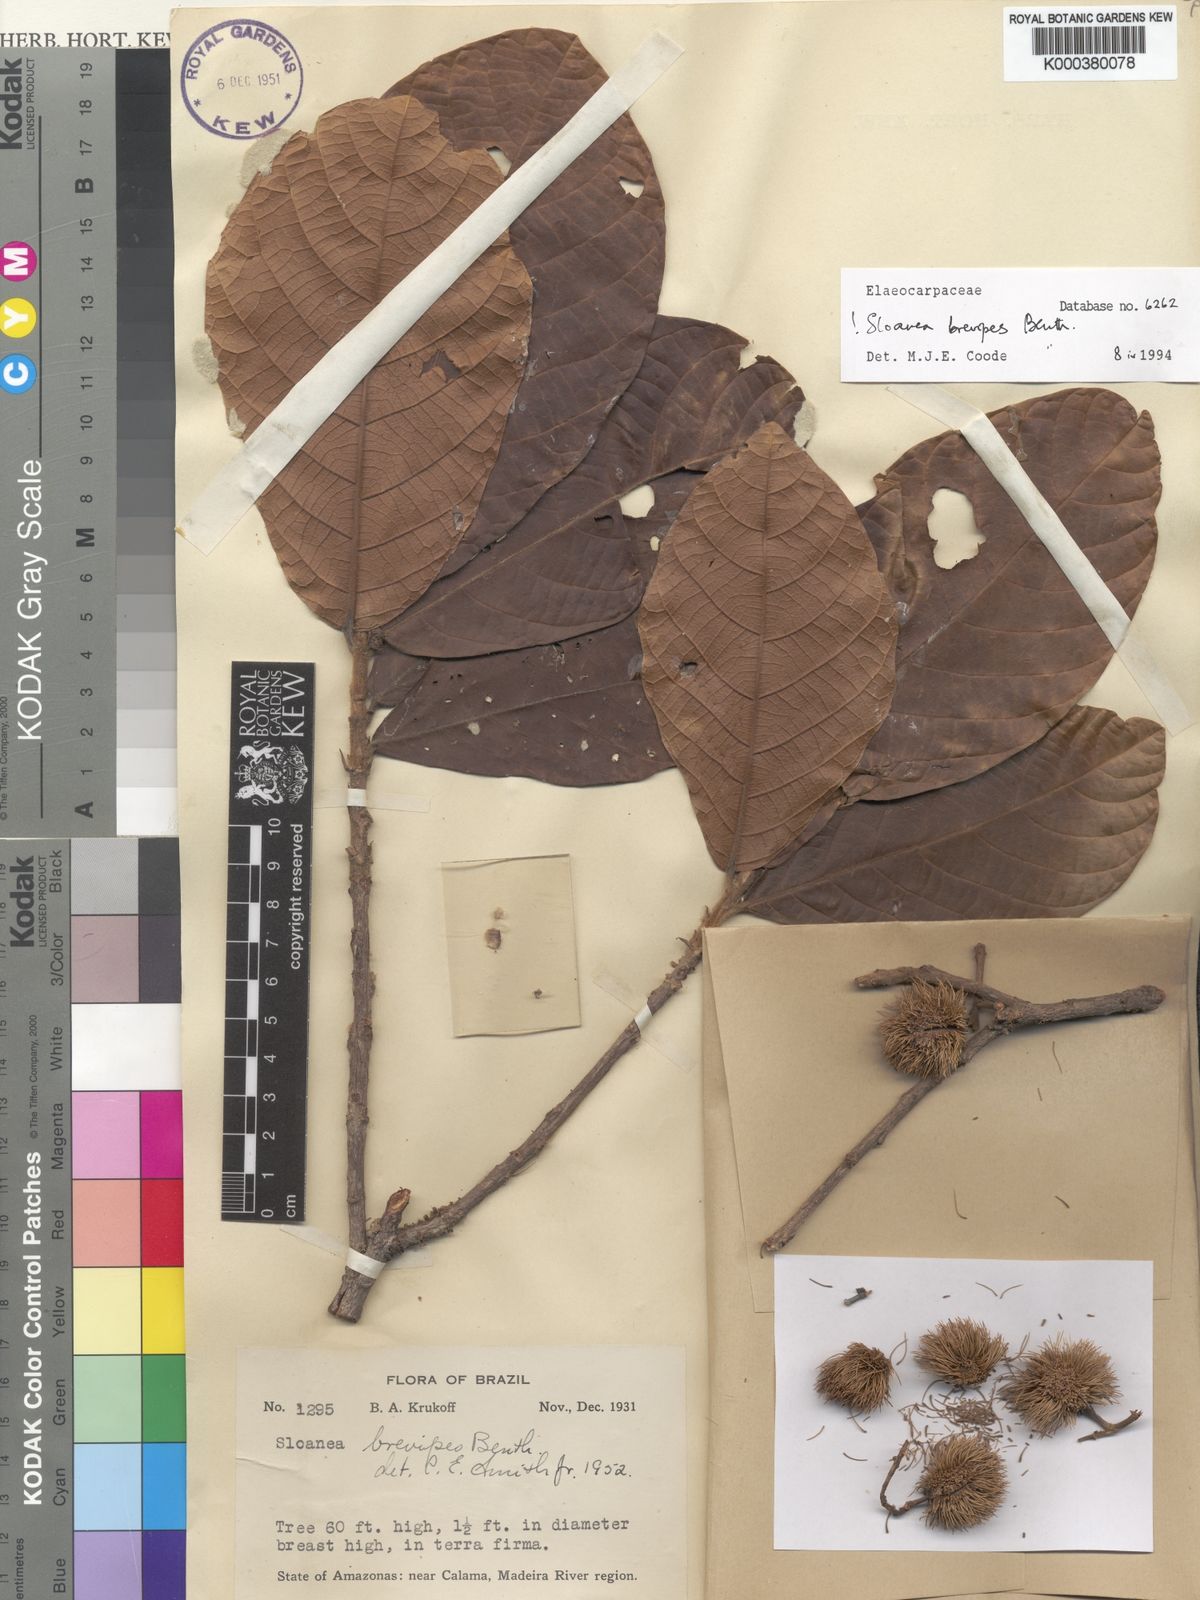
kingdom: Plantae
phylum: Tracheophyta
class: Magnoliopsida
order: Oxalidales
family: Elaeocarpaceae
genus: Sloanea
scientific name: Sloanea brevipes
